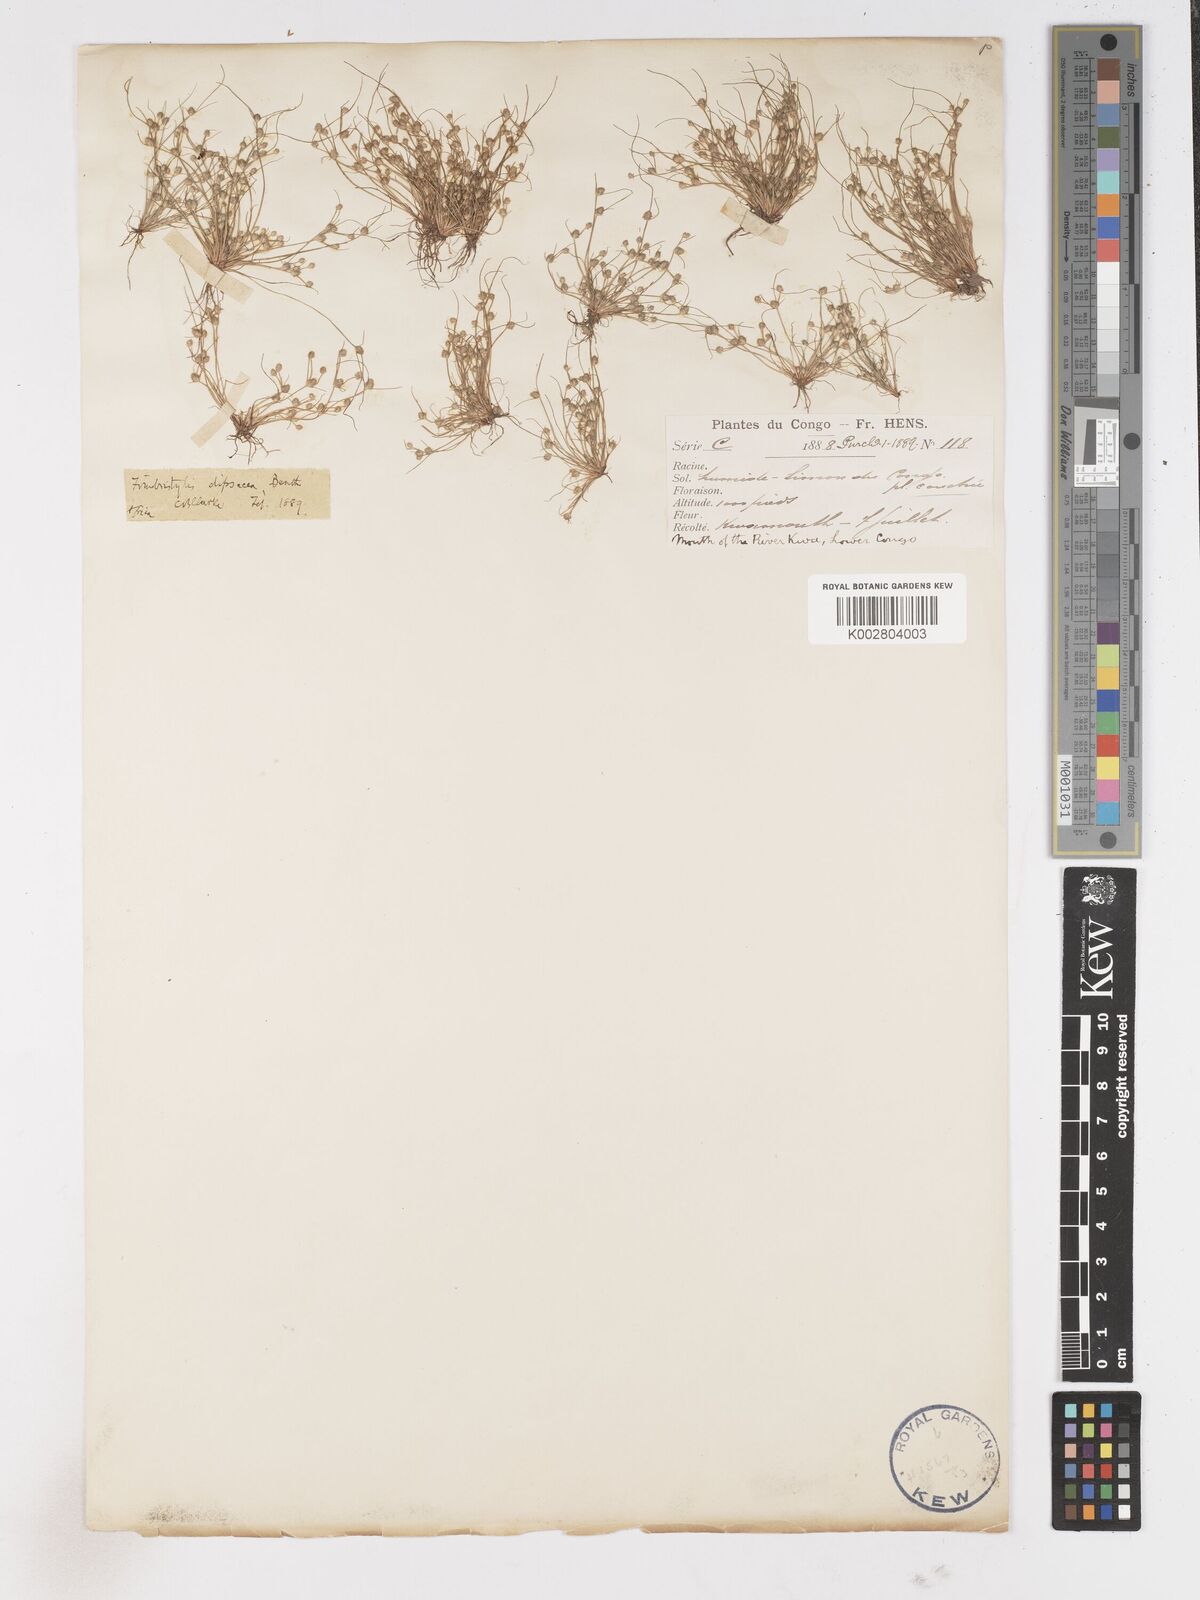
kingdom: Plantae
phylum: Tracheophyta
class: Liliopsida
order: Poales
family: Cyperaceae
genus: Fimbristylis
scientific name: Fimbristylis dipsacea
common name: Harper's fimbristylis
